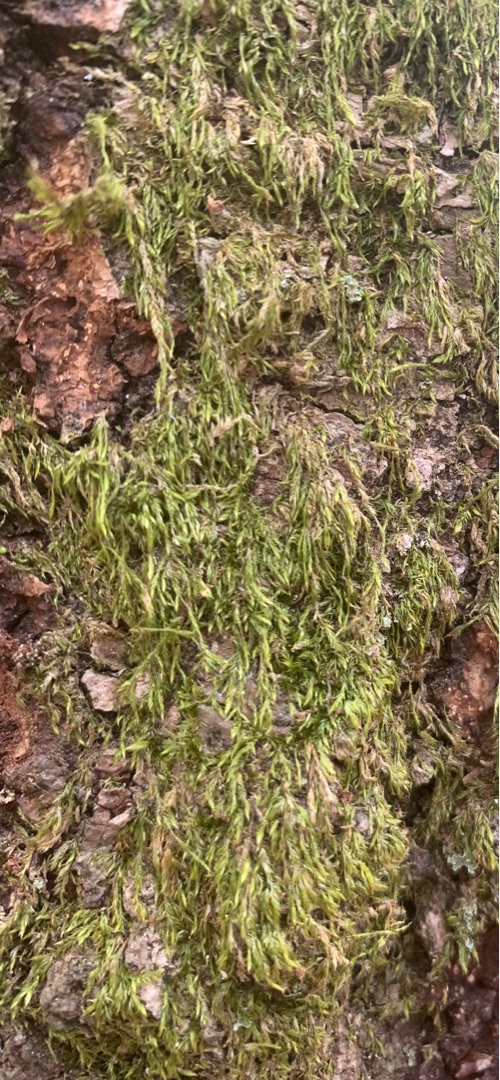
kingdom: Plantae
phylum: Bryophyta
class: Bryopsida
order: Hypnales
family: Hypnaceae
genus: Hypnum
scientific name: Hypnum
